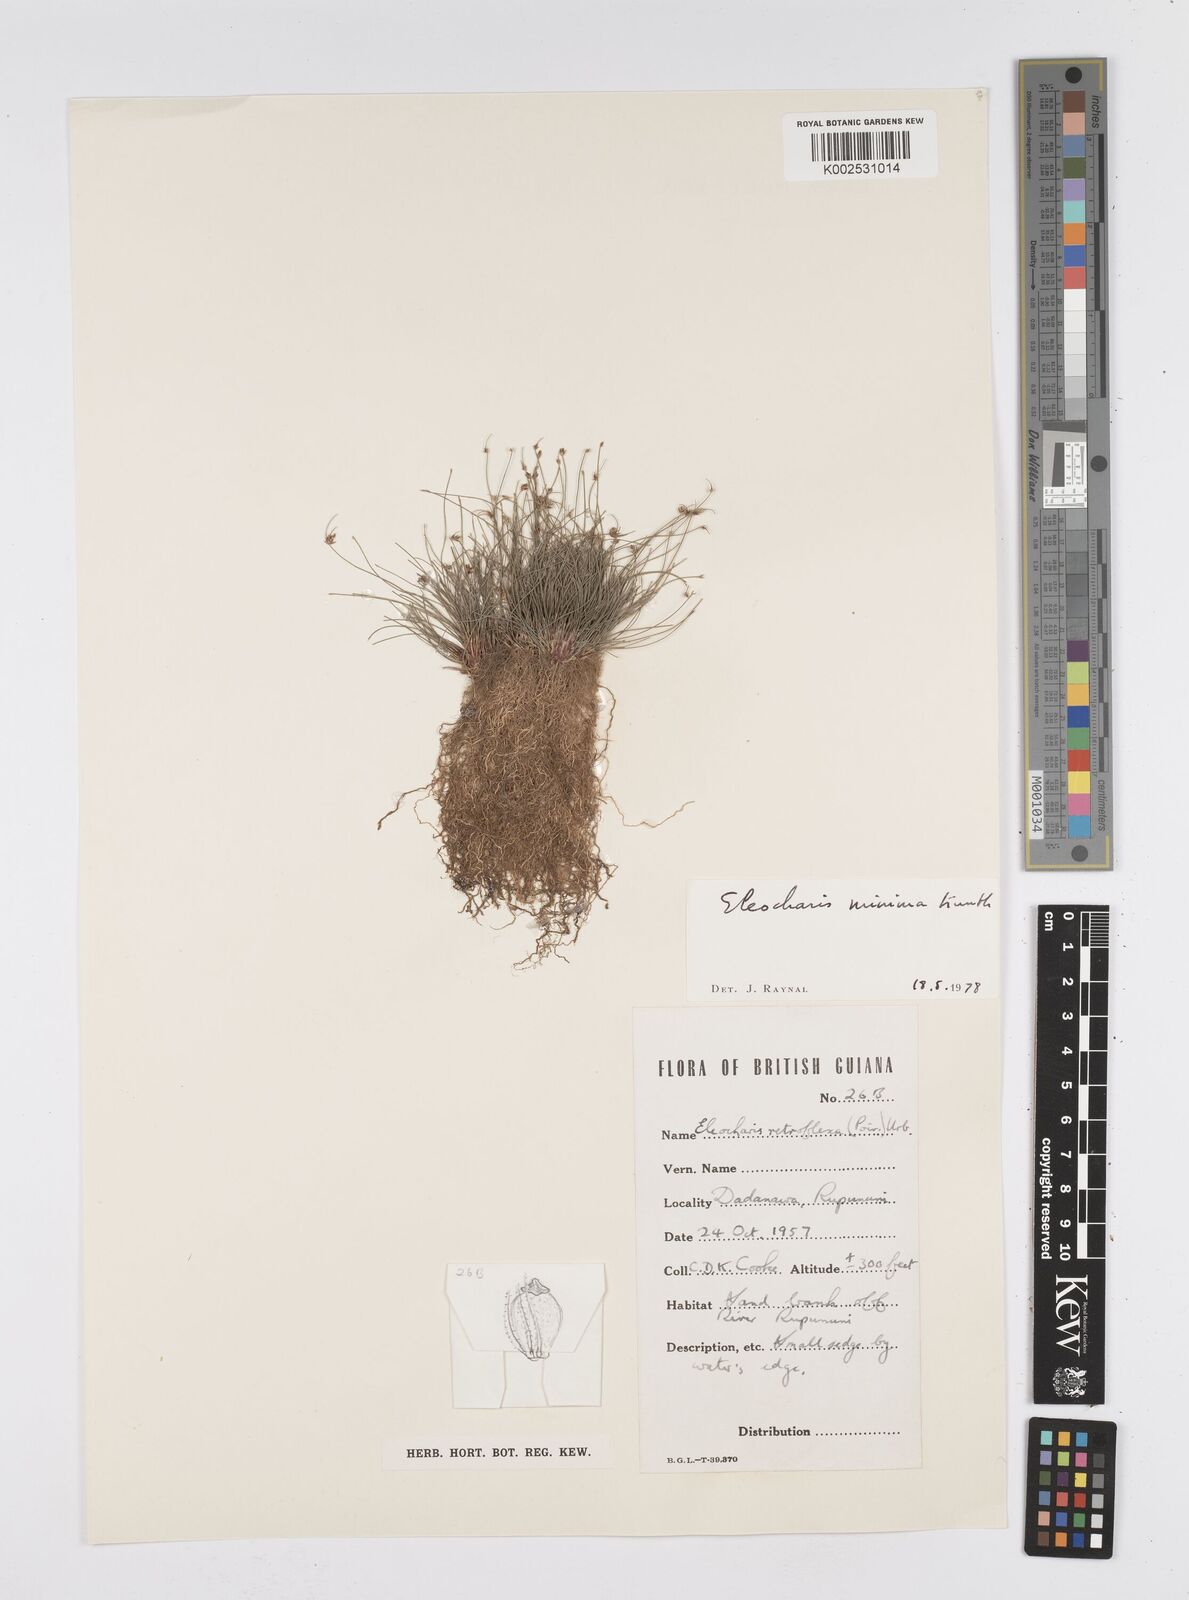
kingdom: Plantae
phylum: Tracheophyta
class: Liliopsida
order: Poales
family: Cyperaceae
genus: Eleocharis
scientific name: Eleocharis minima
